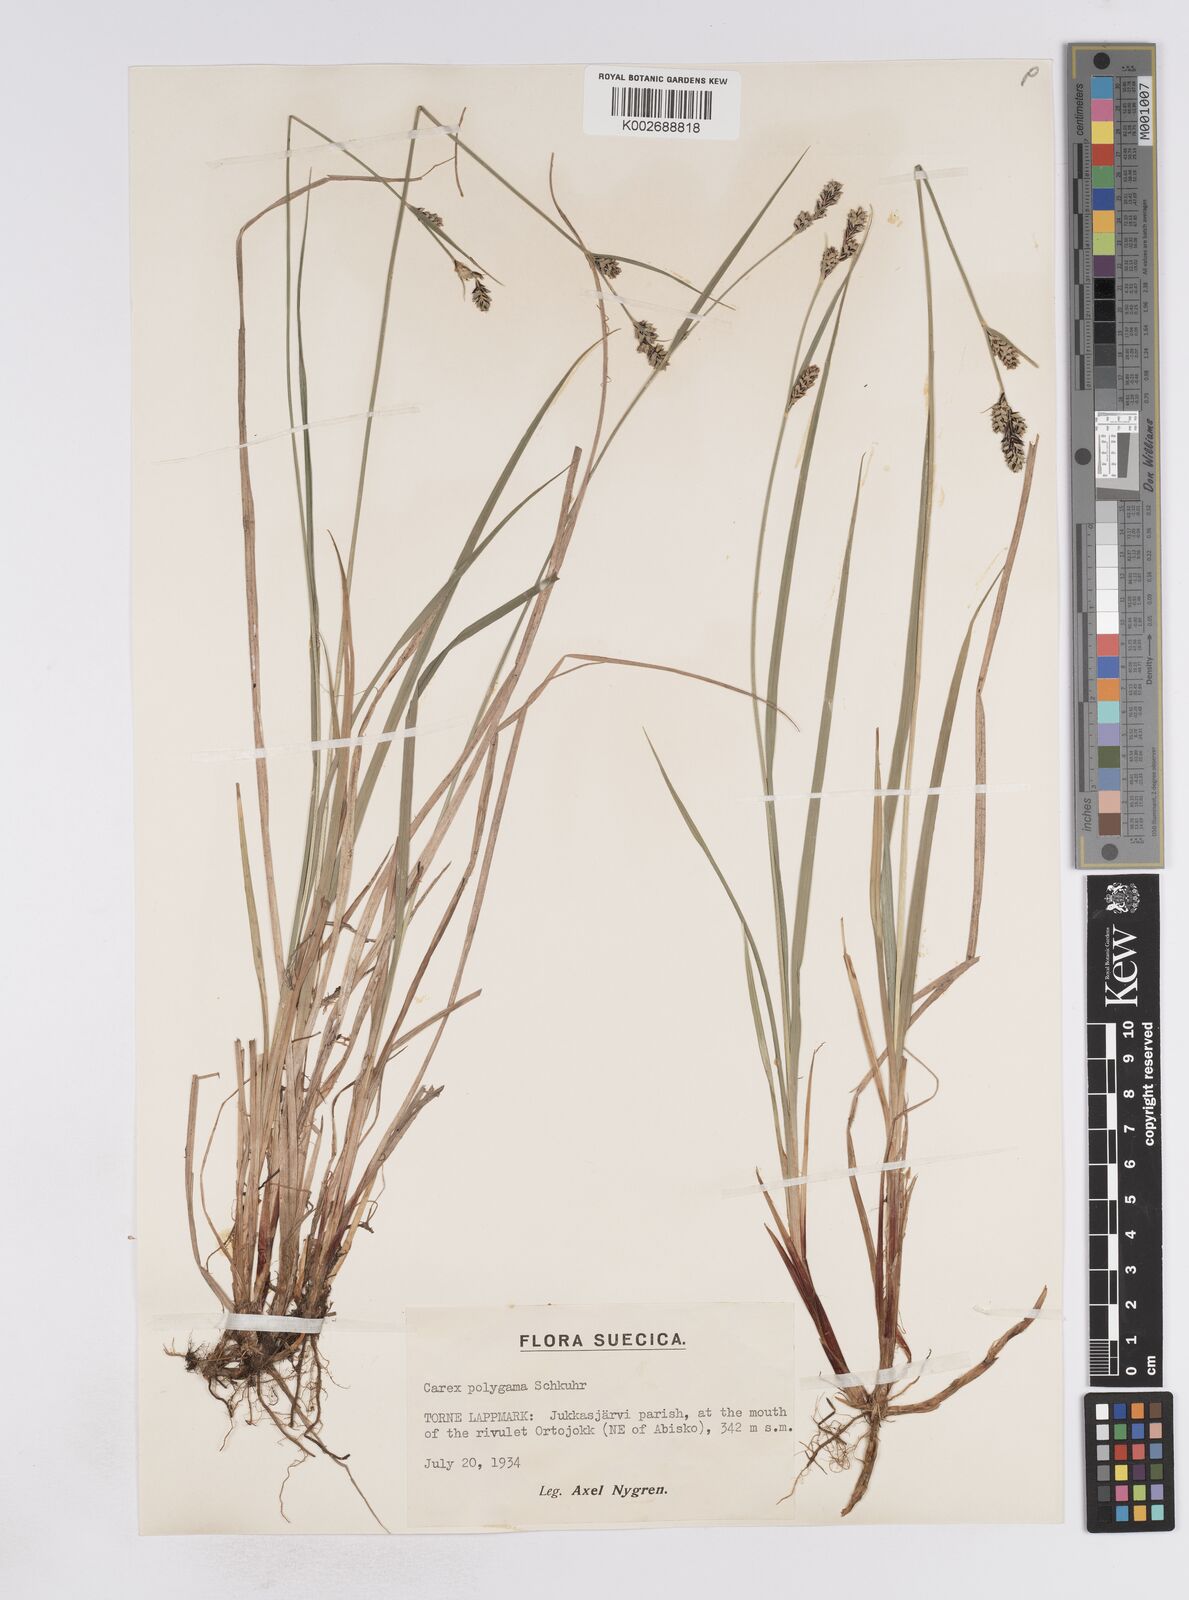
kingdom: Plantae
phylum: Tracheophyta
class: Liliopsida
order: Poales
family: Cyperaceae
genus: Carex
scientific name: Carex buxbaumii
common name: Club sedge
